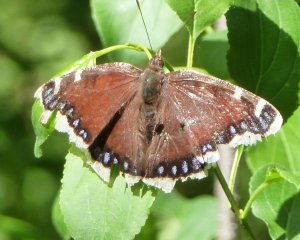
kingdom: Animalia
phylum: Arthropoda
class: Insecta
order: Lepidoptera
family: Nymphalidae
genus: Nymphalis
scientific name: Nymphalis antiopa
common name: Mourning Cloak
